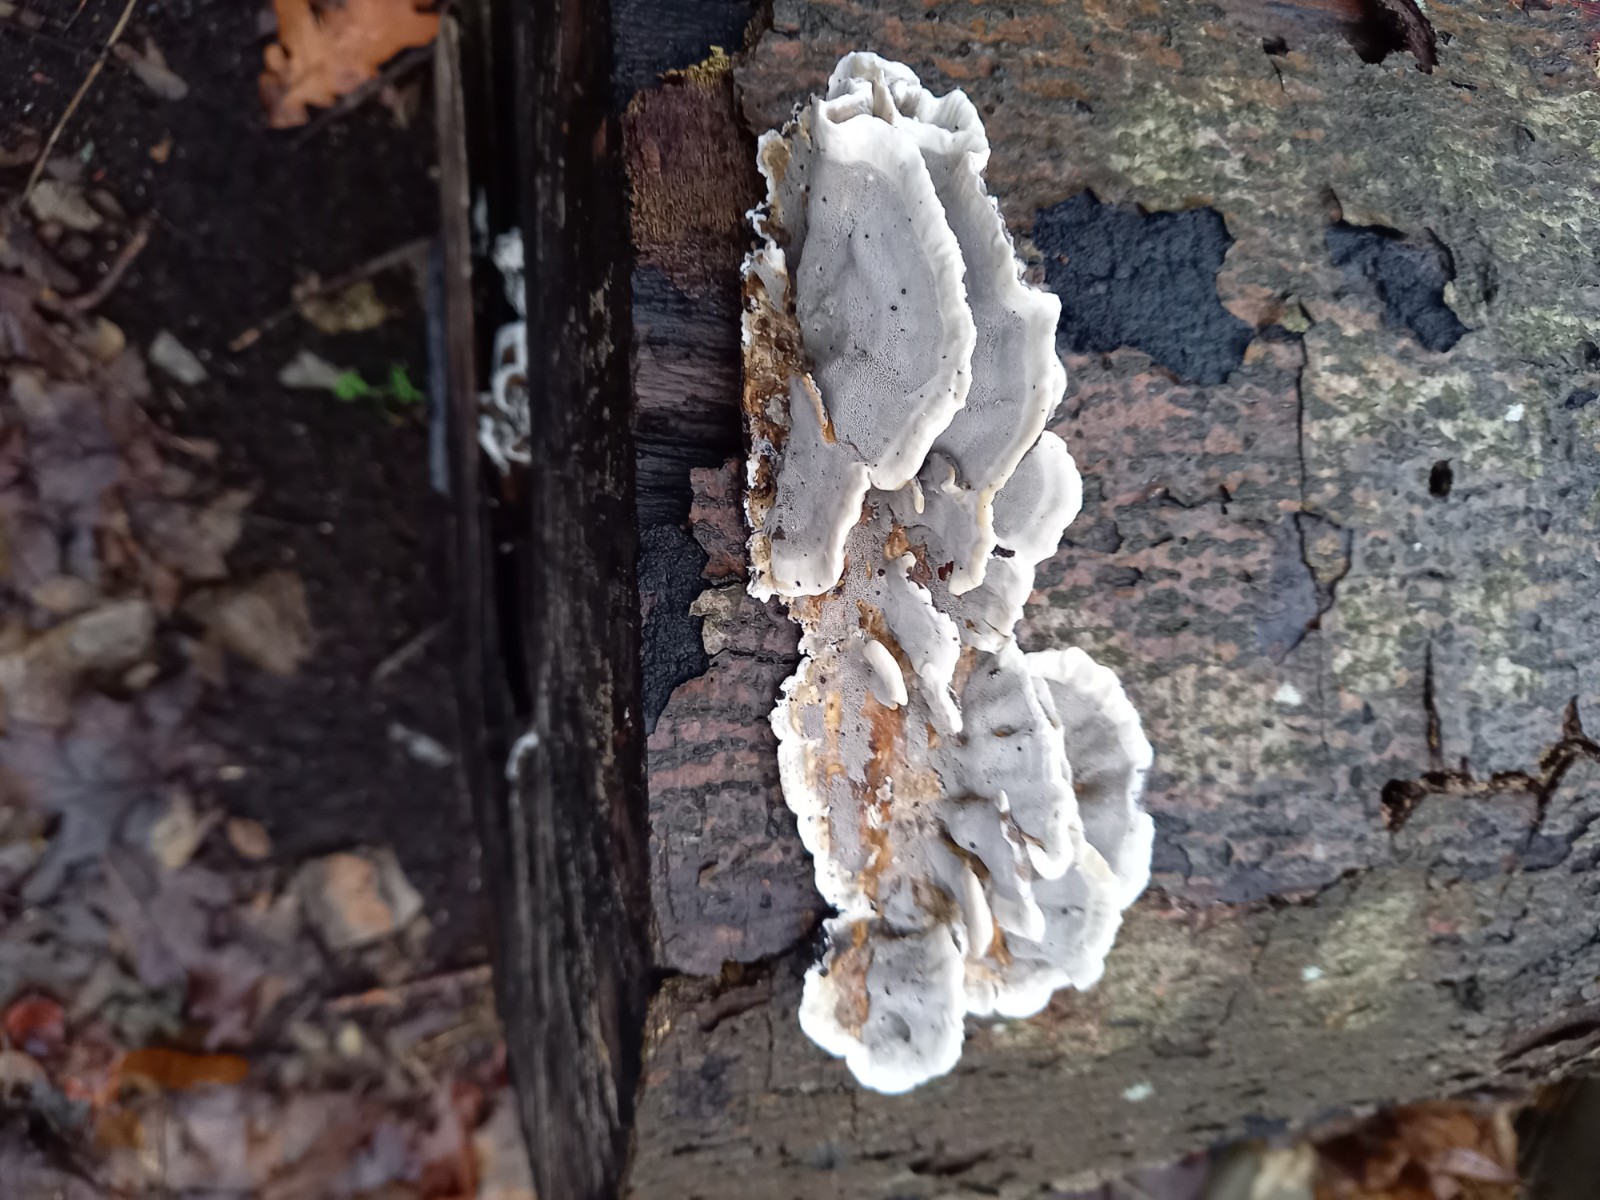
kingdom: Fungi
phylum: Basidiomycota
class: Agaricomycetes
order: Polyporales
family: Phanerochaetaceae
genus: Bjerkandera
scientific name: Bjerkandera adusta
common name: sveden sodporesvamp
